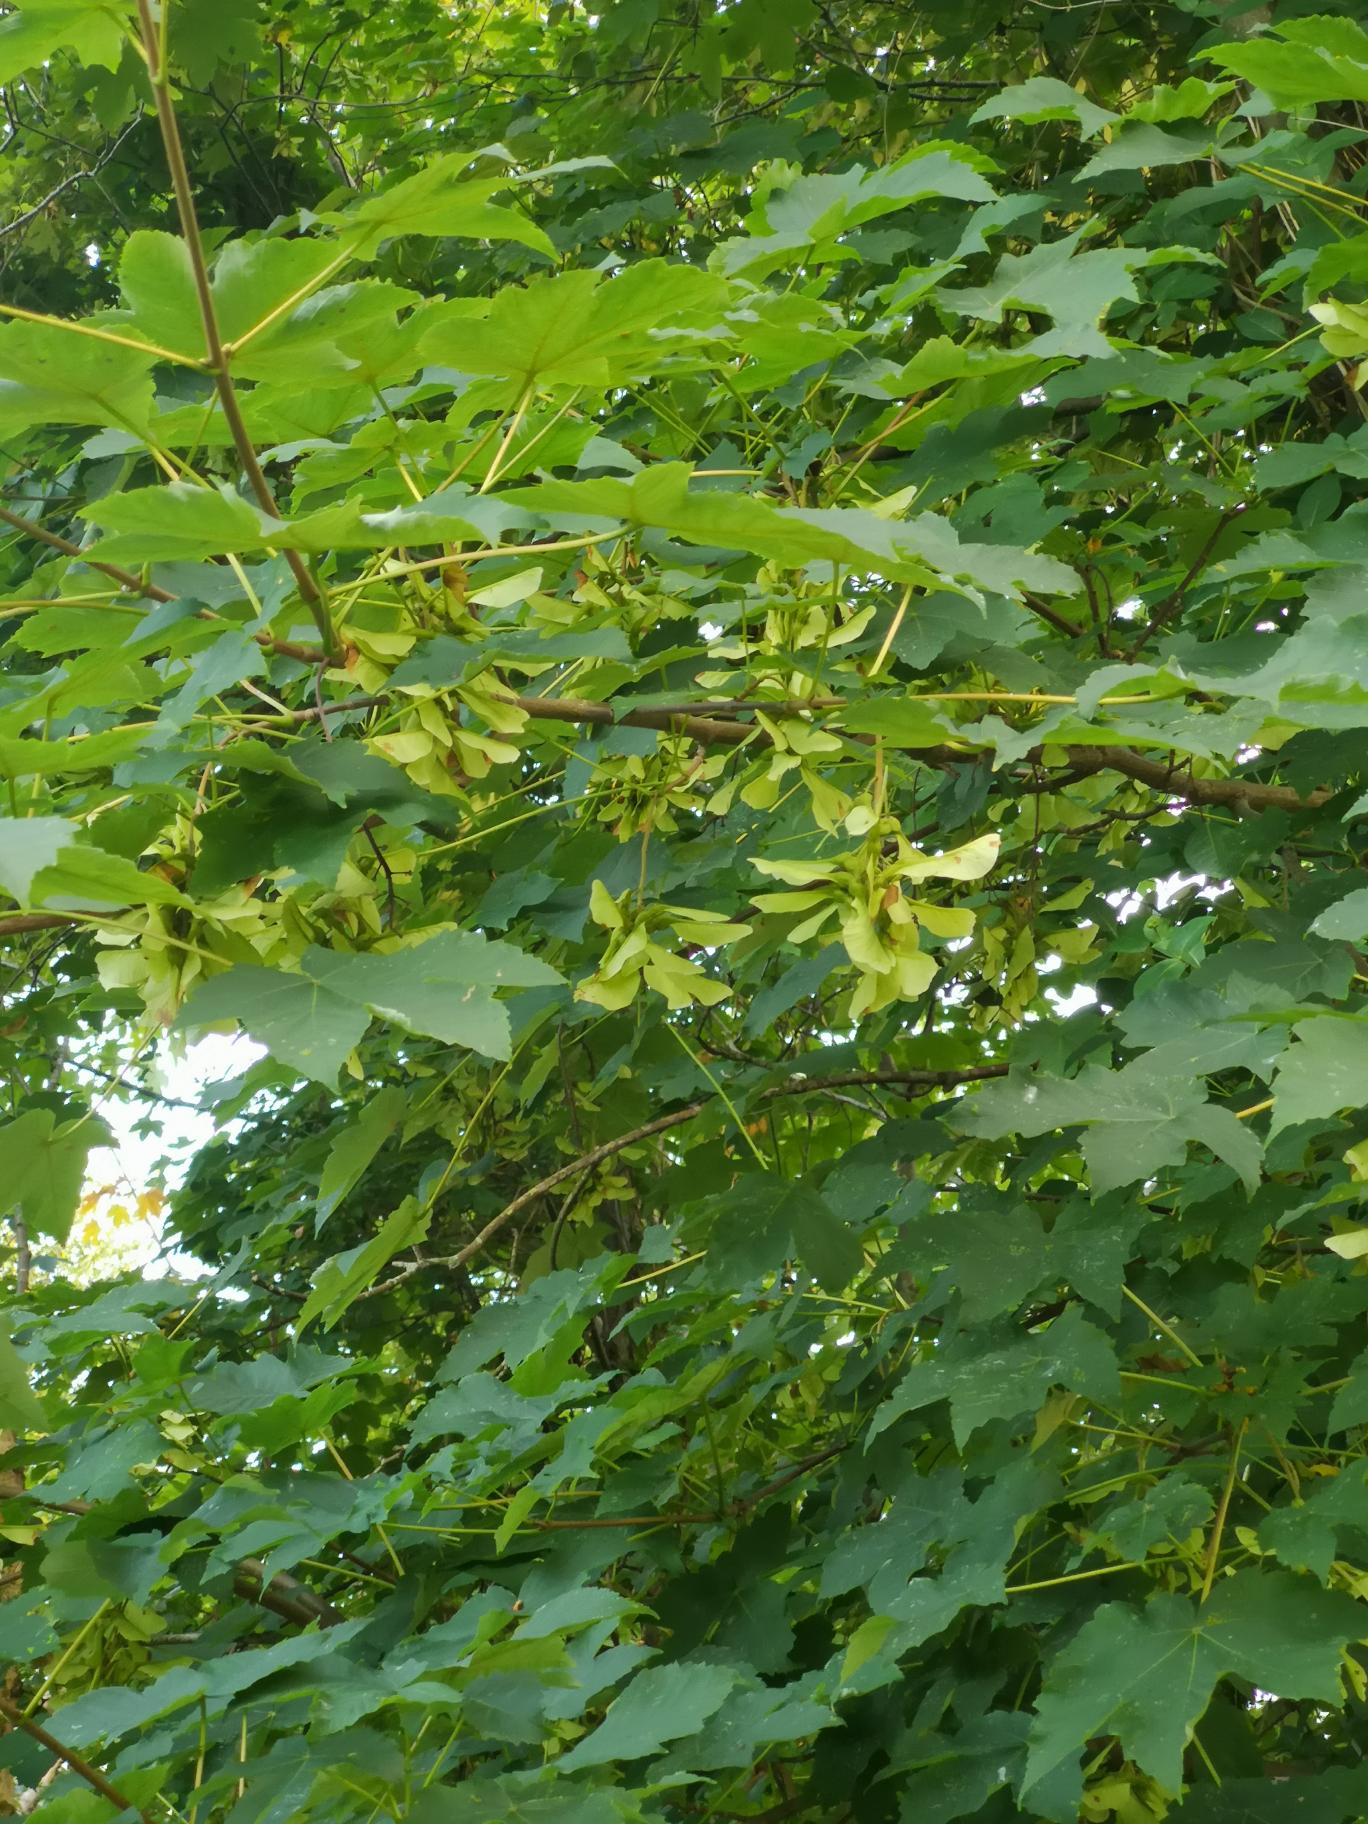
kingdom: Plantae
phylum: Tracheophyta
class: Magnoliopsida
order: Sapindales
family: Sapindaceae
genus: Acer
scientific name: Acer pseudoplatanus
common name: Ahorn
